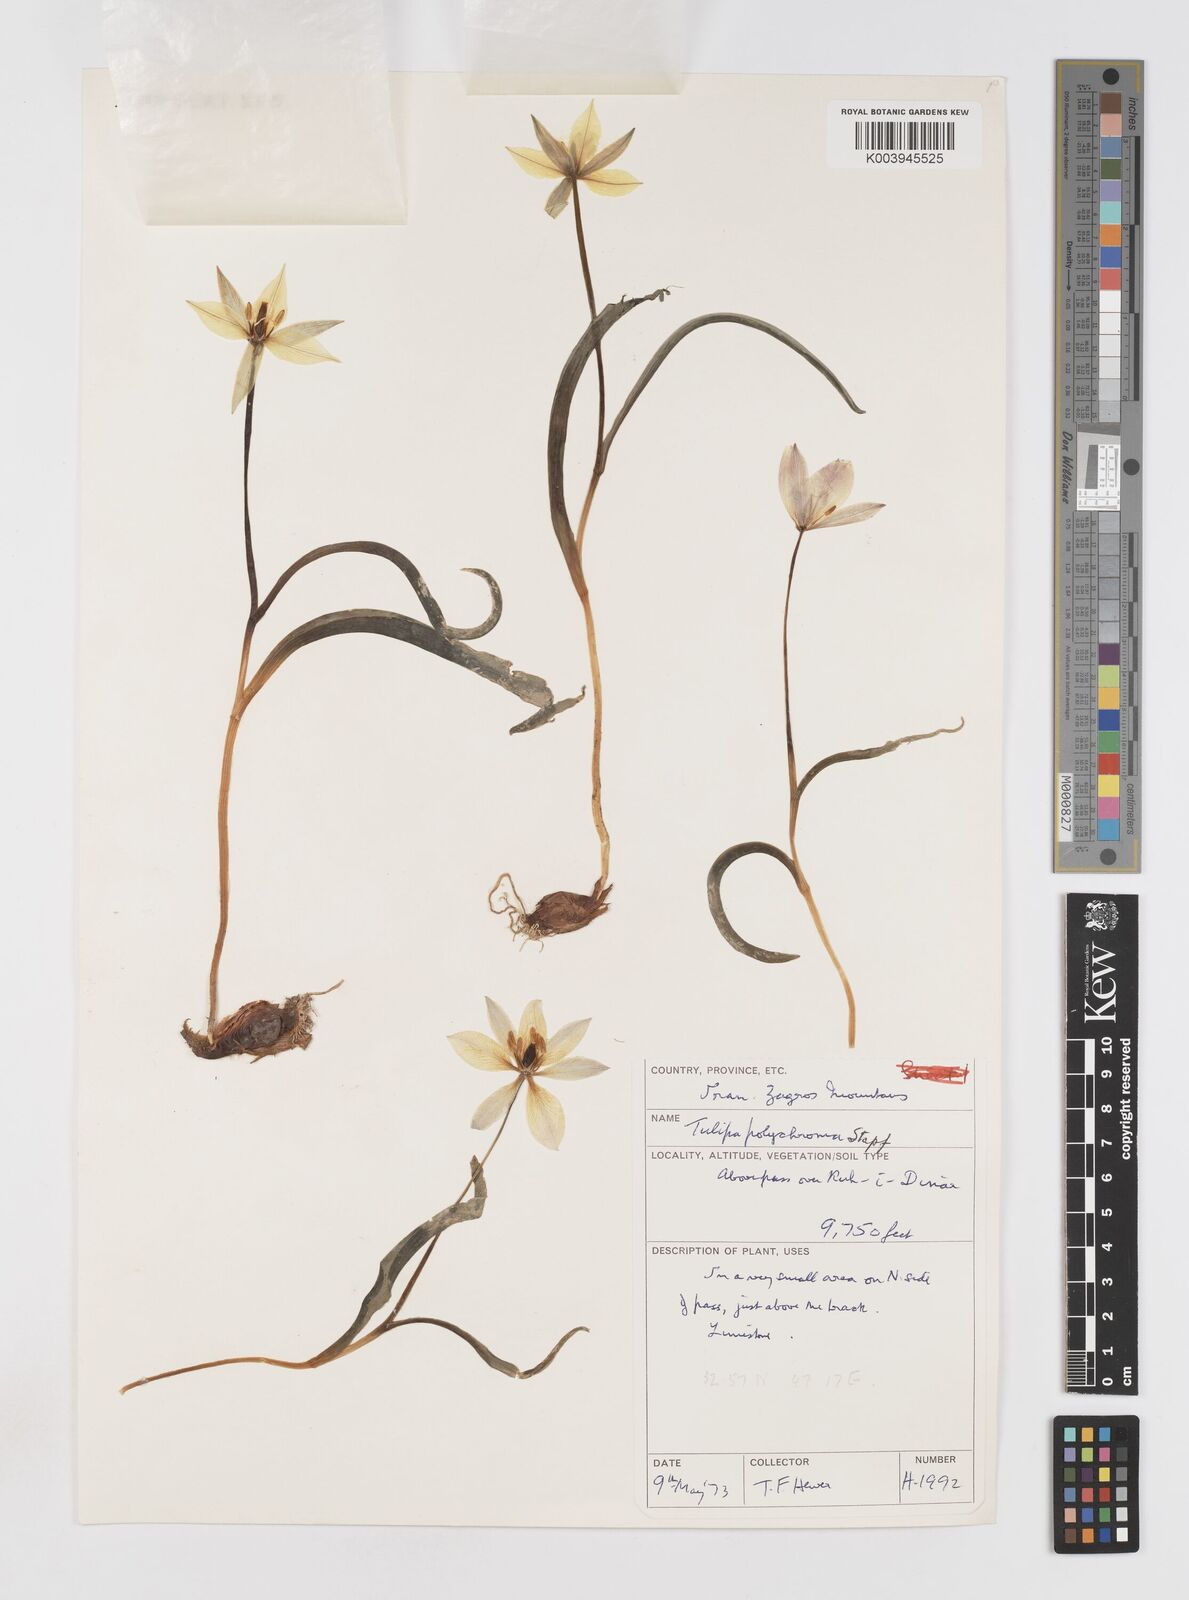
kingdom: Plantae
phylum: Tracheophyta
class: Liliopsida
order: Liliales
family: Liliaceae
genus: Tulipa
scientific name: Tulipa biflora
